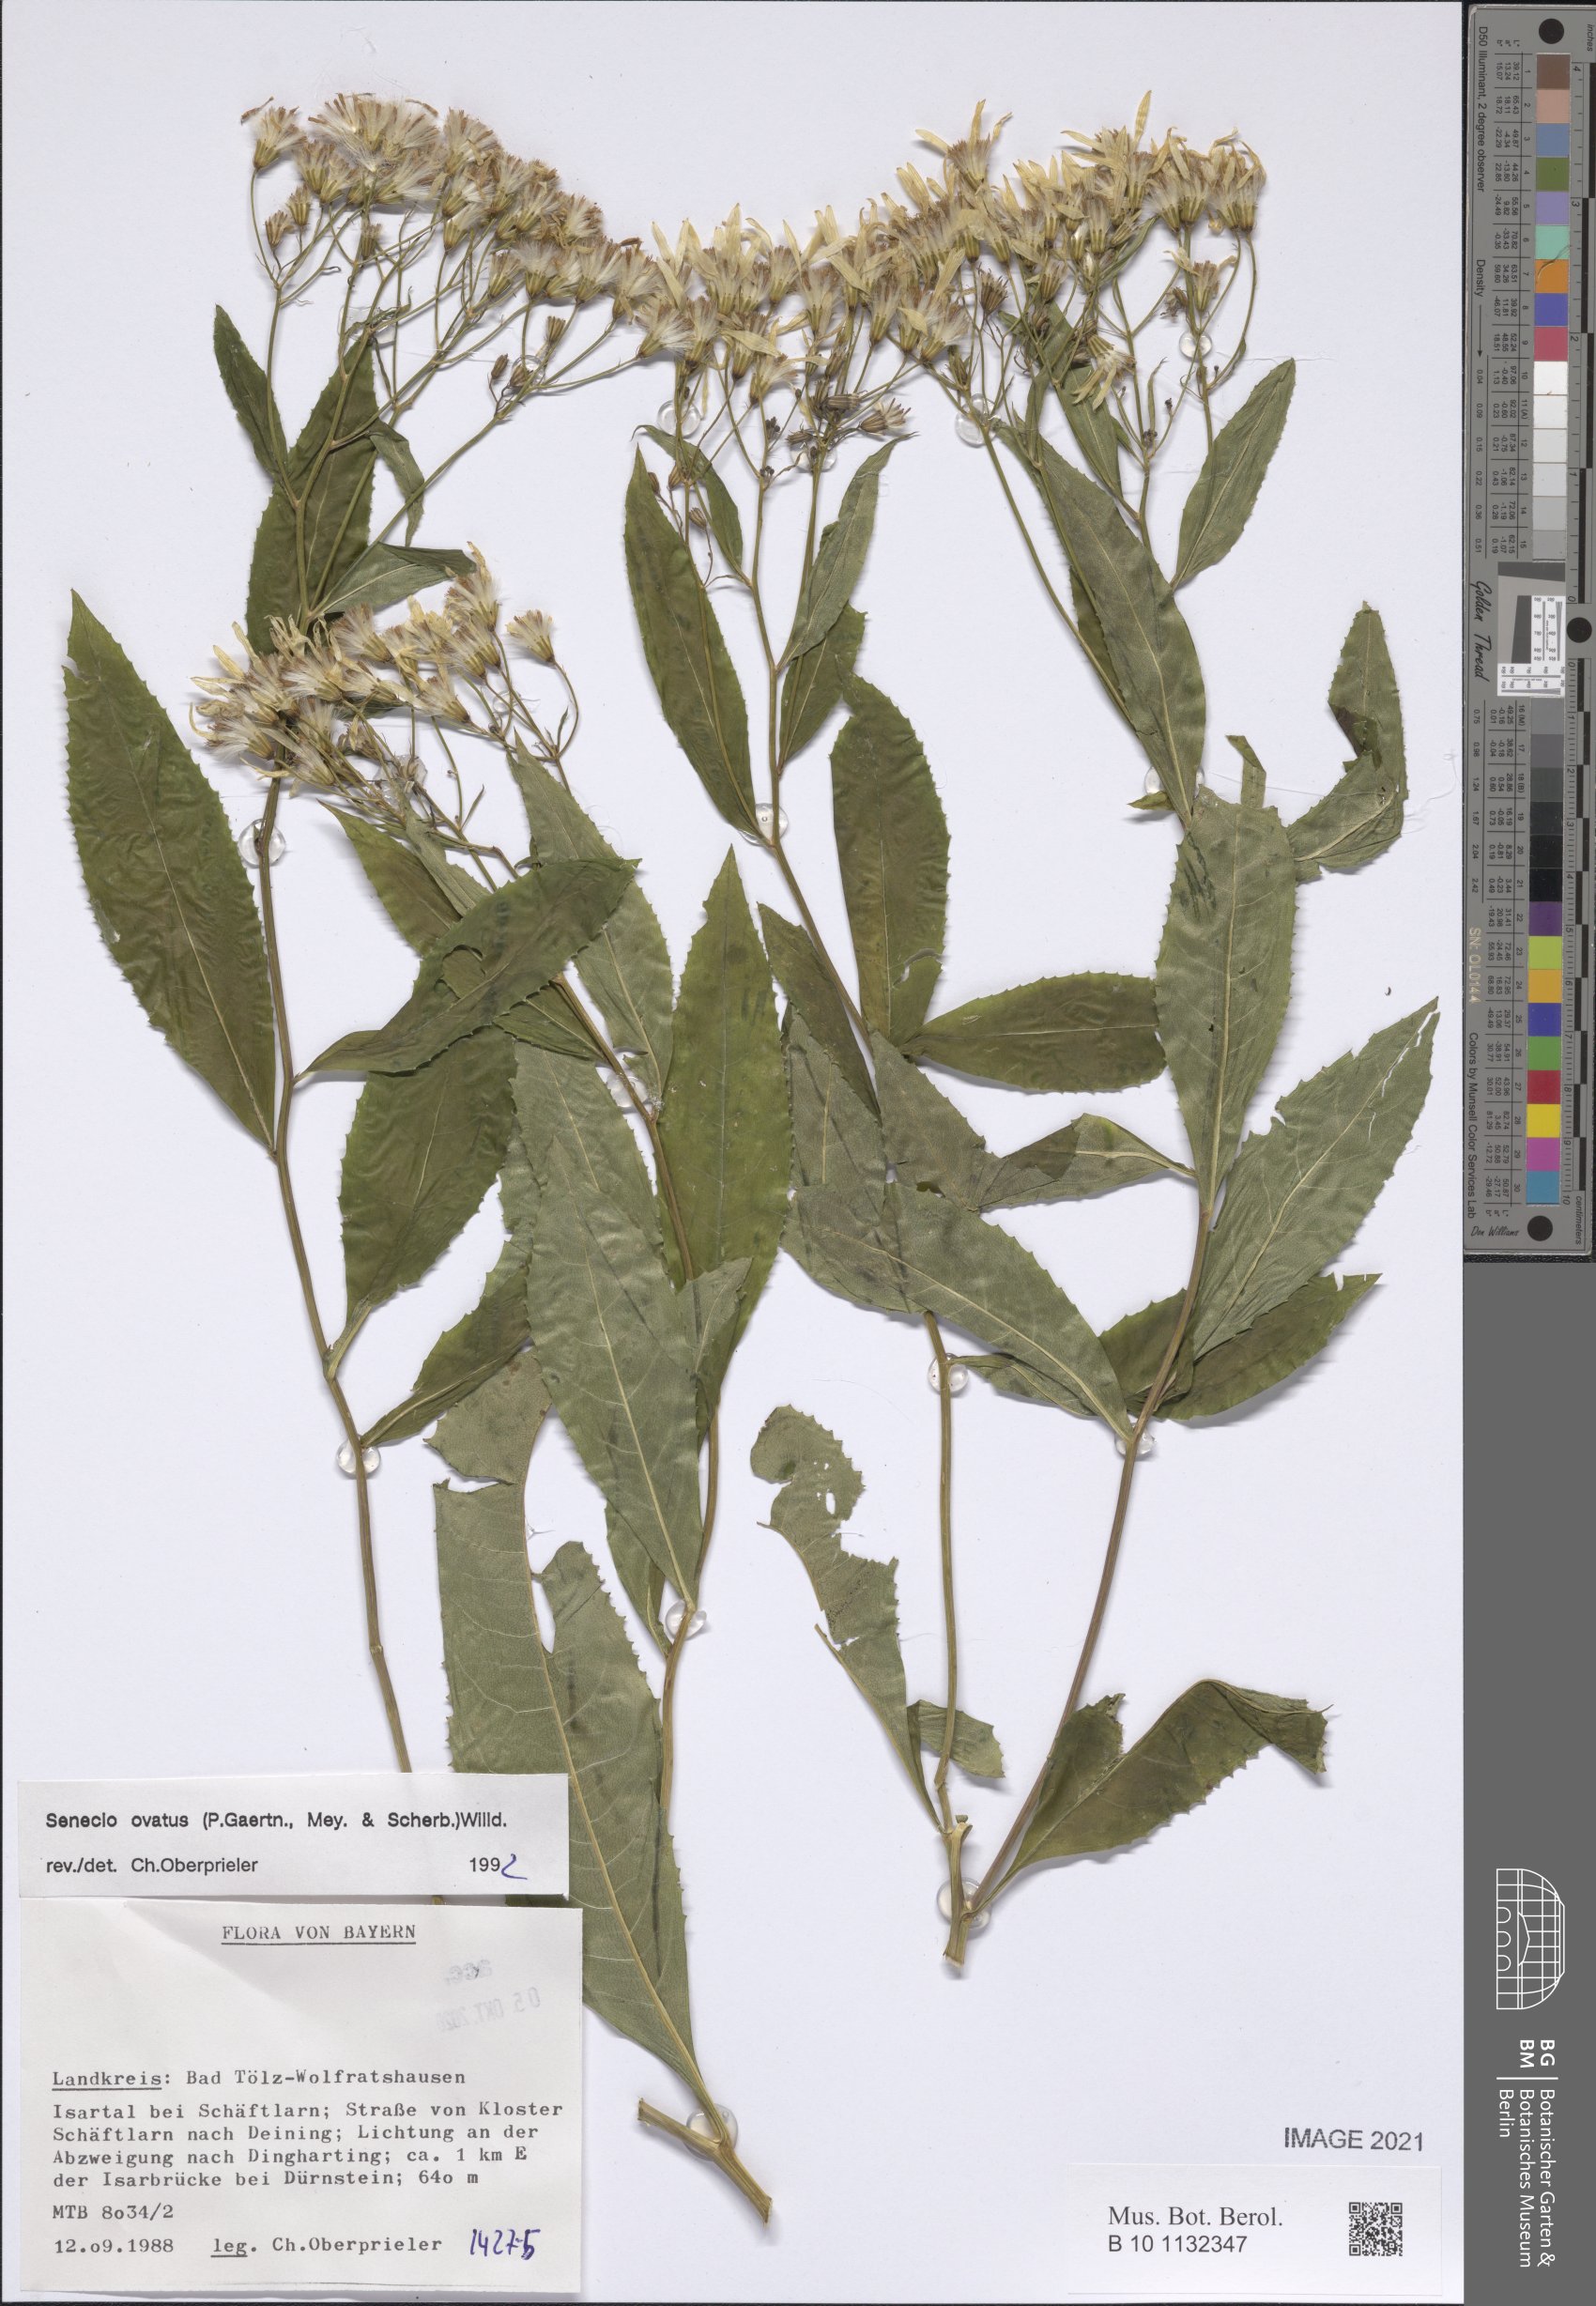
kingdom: Plantae
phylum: Tracheophyta
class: Magnoliopsida
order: Asterales
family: Asteraceae
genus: Senecio
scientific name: Senecio ovatus
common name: Wood ragwort
